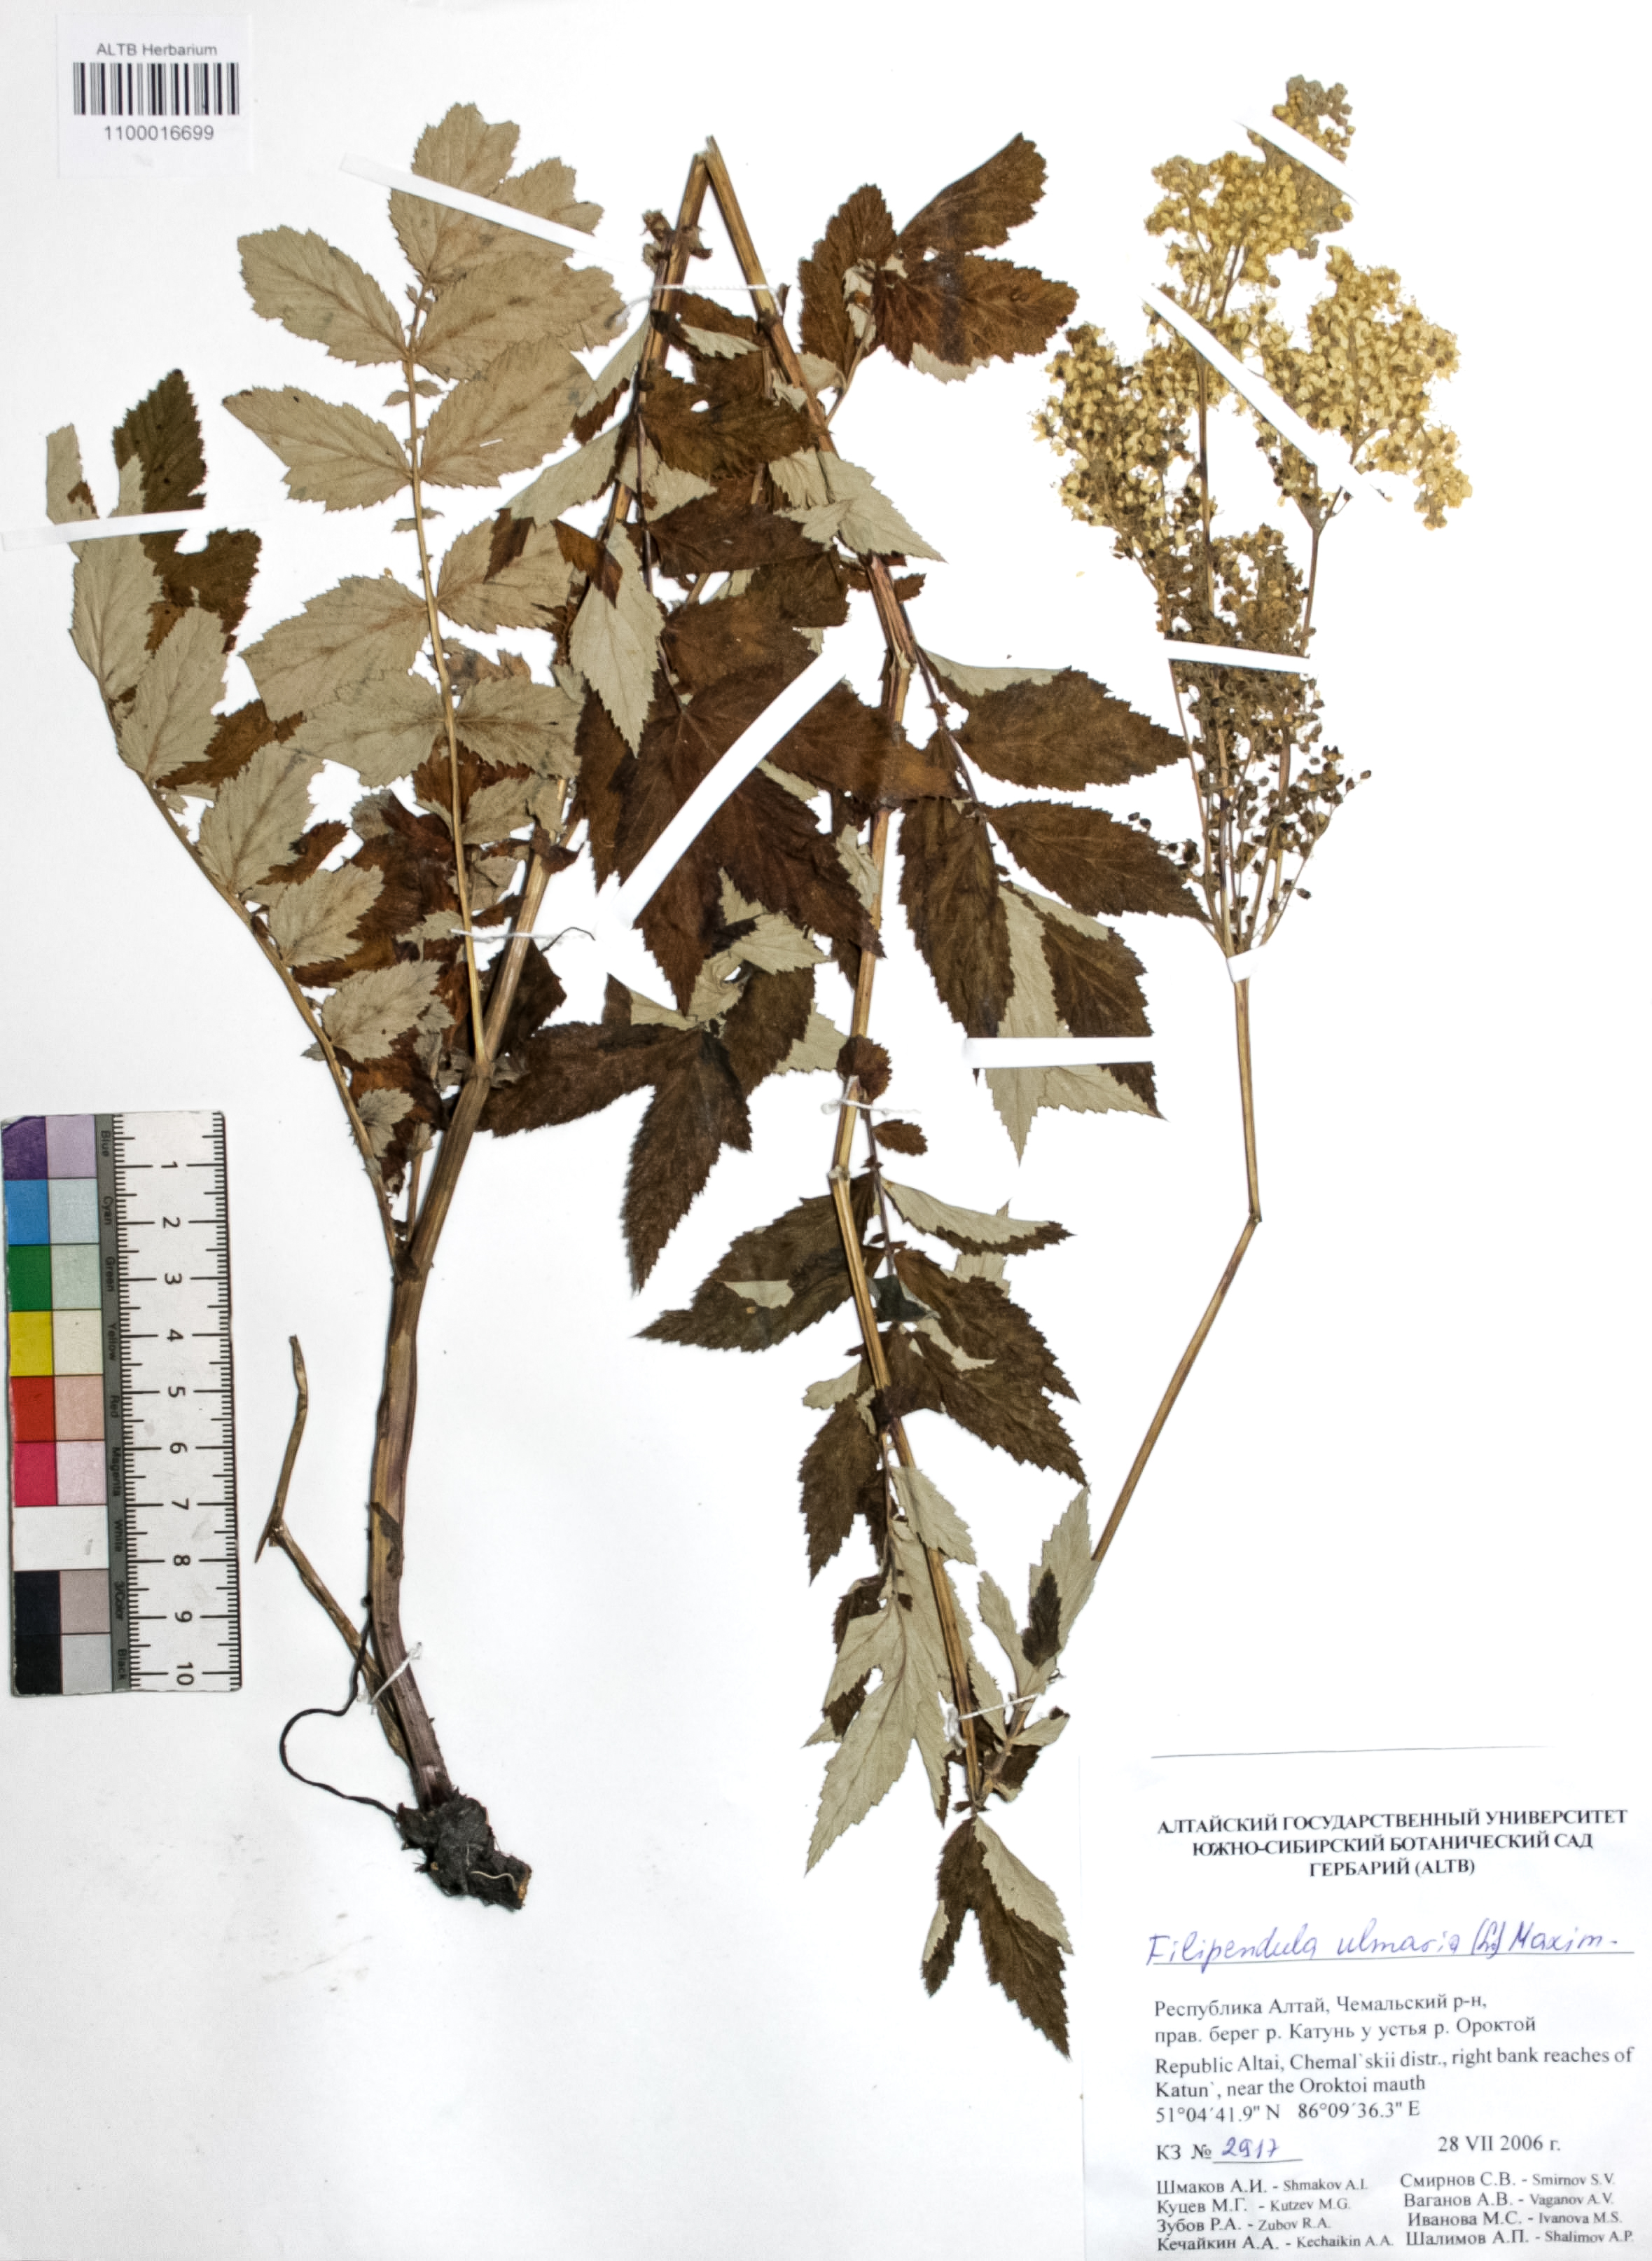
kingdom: Plantae
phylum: Tracheophyta
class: Magnoliopsida
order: Rosales
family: Rosaceae
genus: Filipendula
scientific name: Filipendula ulmaria
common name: Meadowsweet
